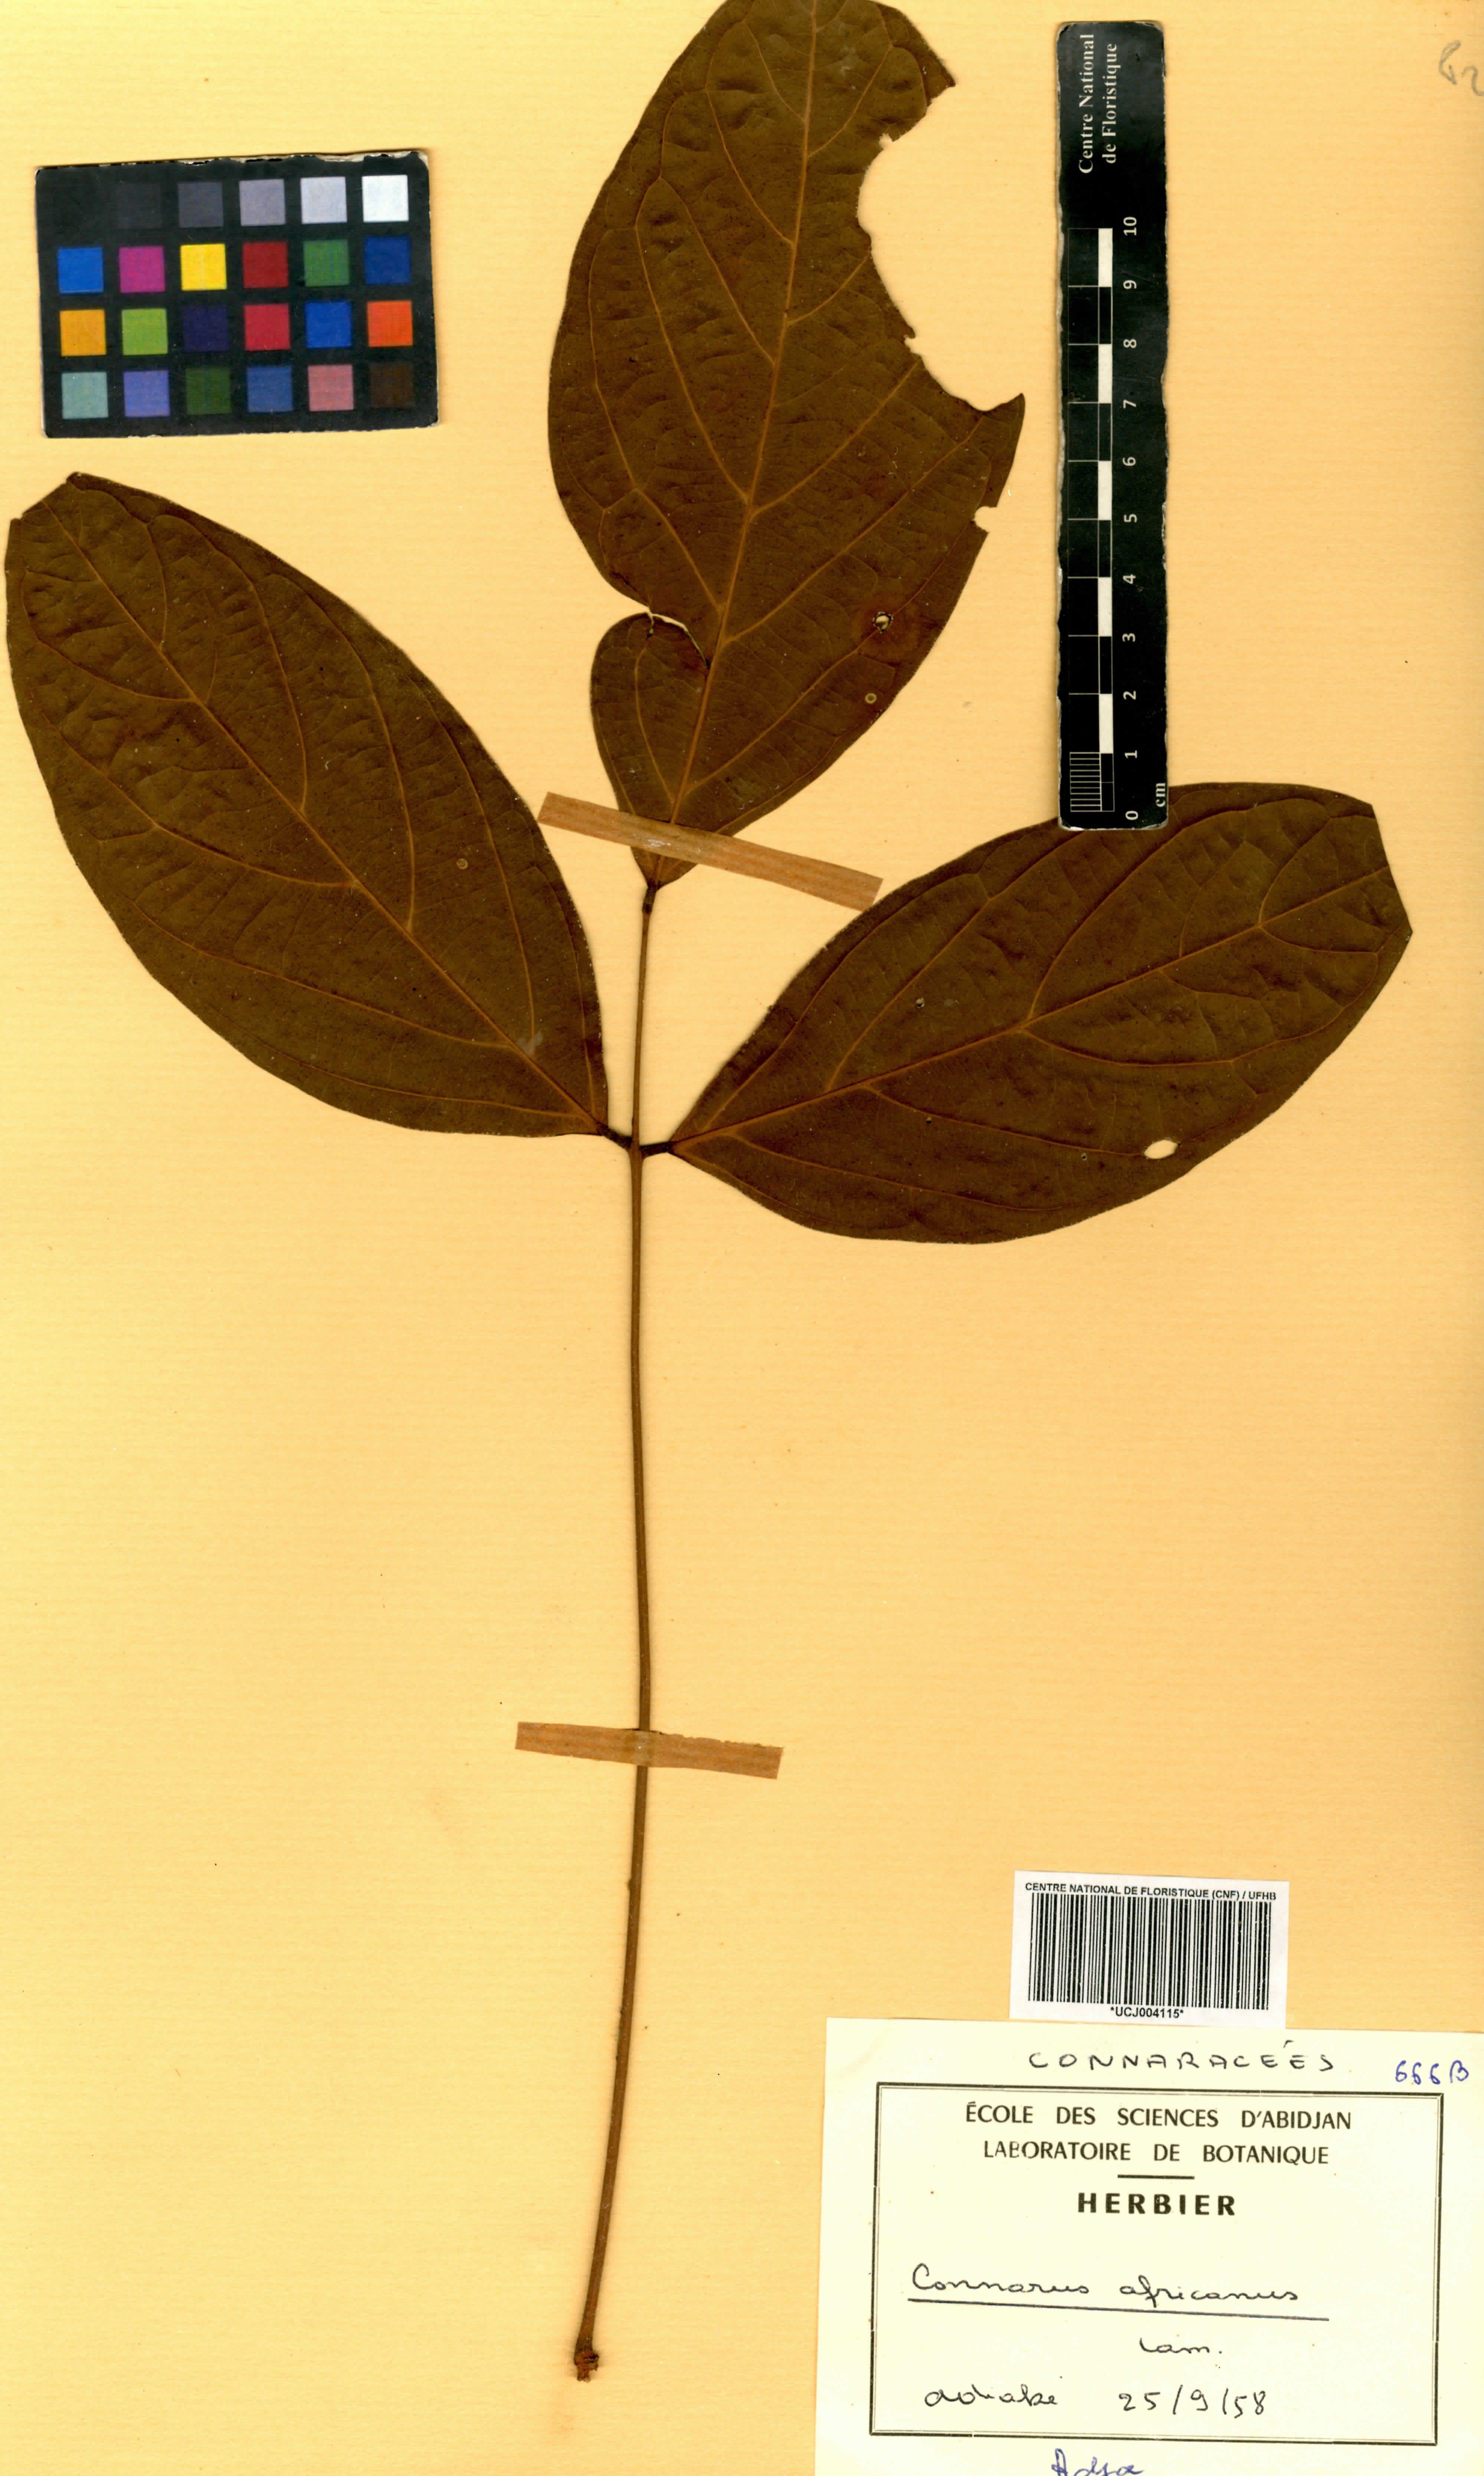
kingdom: Plantae
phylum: Tracheophyta
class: Magnoliopsida
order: Oxalidales
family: Connaraceae
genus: Connarus
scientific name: Connarus africanus
